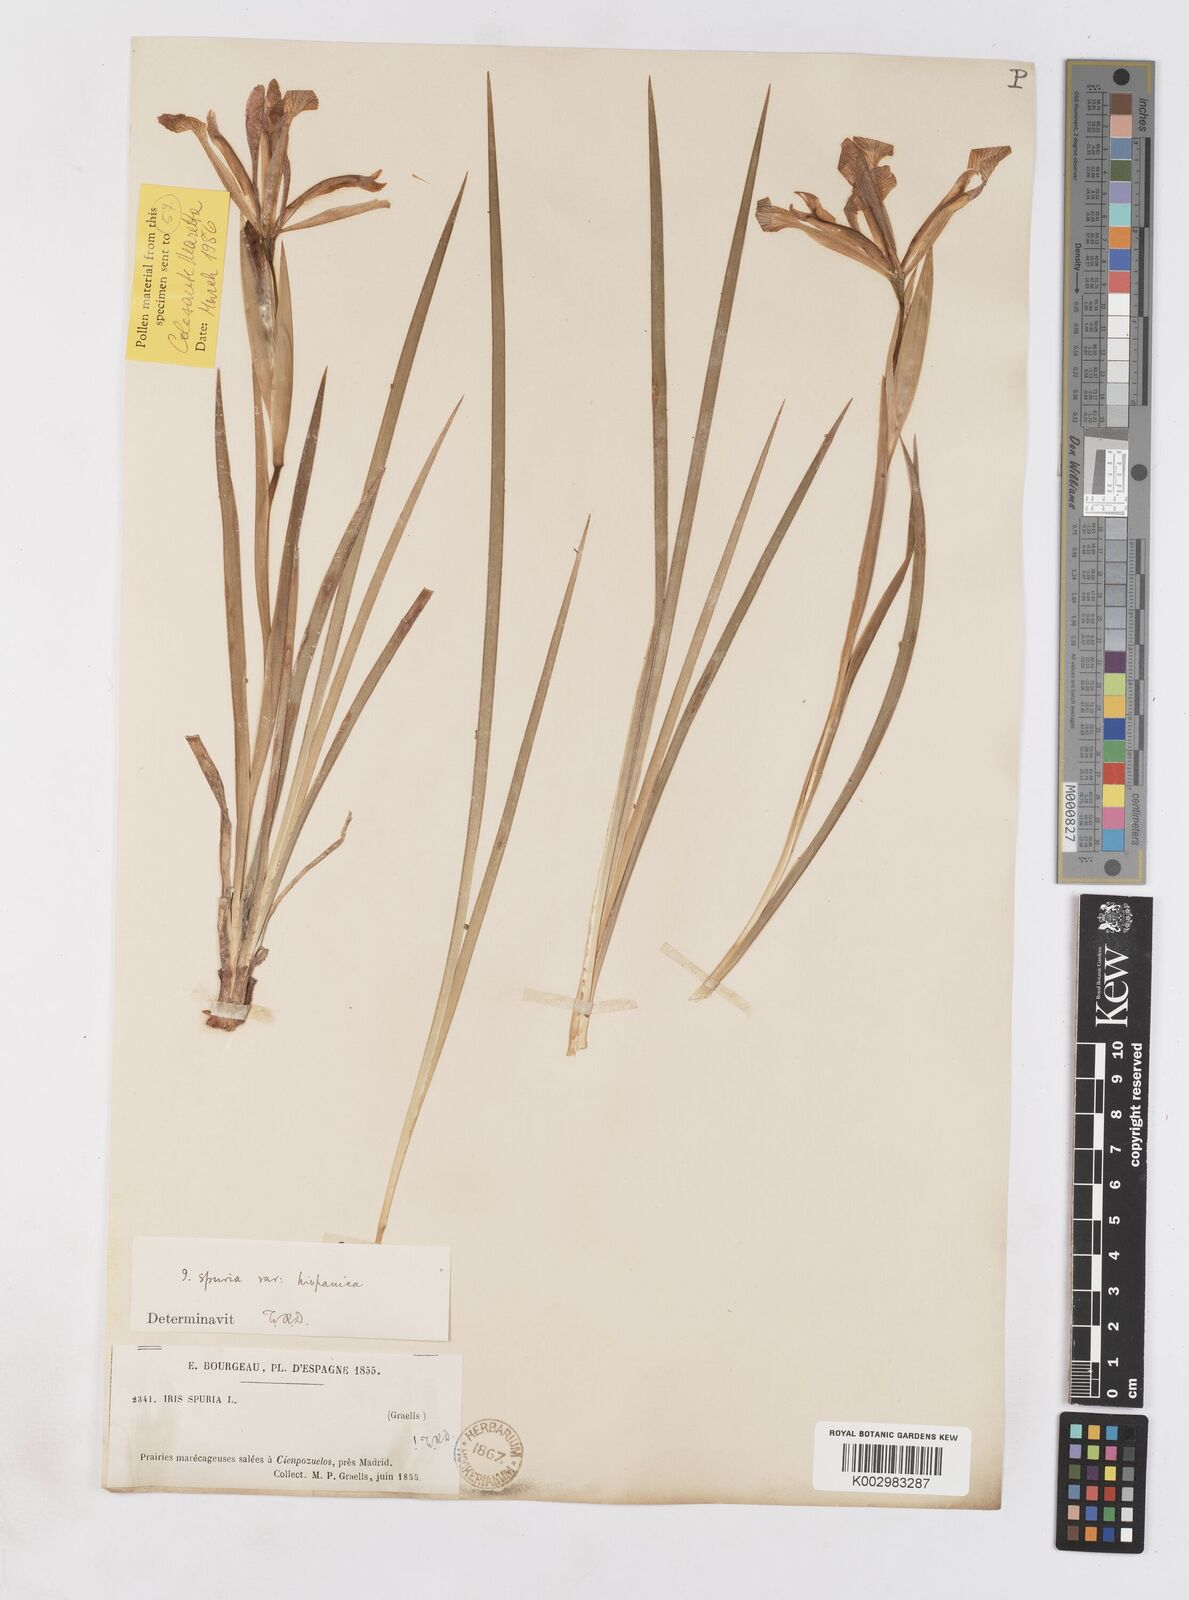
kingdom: Plantae
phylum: Tracheophyta
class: Liliopsida
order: Asparagales
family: Iridaceae
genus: Iris
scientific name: Iris spuria
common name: Blue iris
